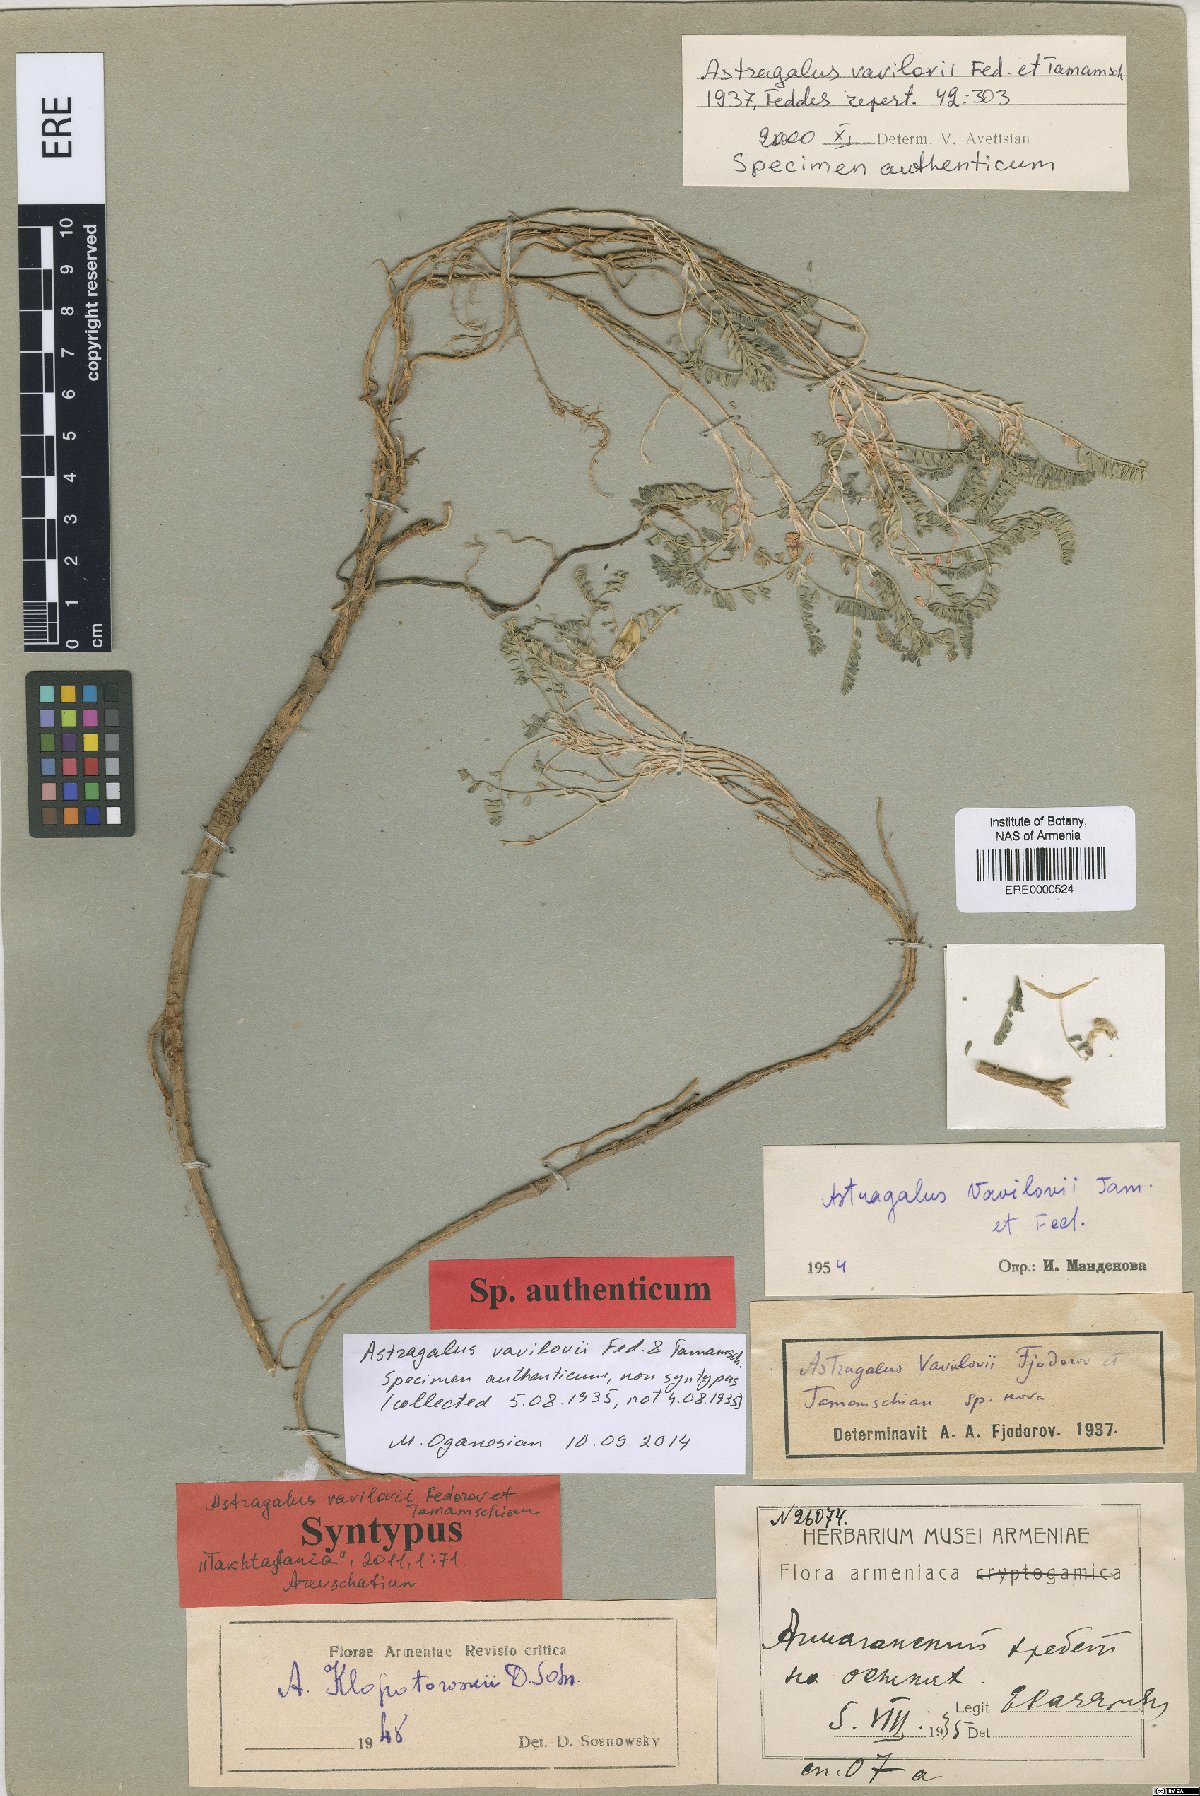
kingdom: Plantae
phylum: Tracheophyta
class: Magnoliopsida
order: Fabales
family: Fabaceae
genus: Astragalus
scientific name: Astragalus vavilovii
